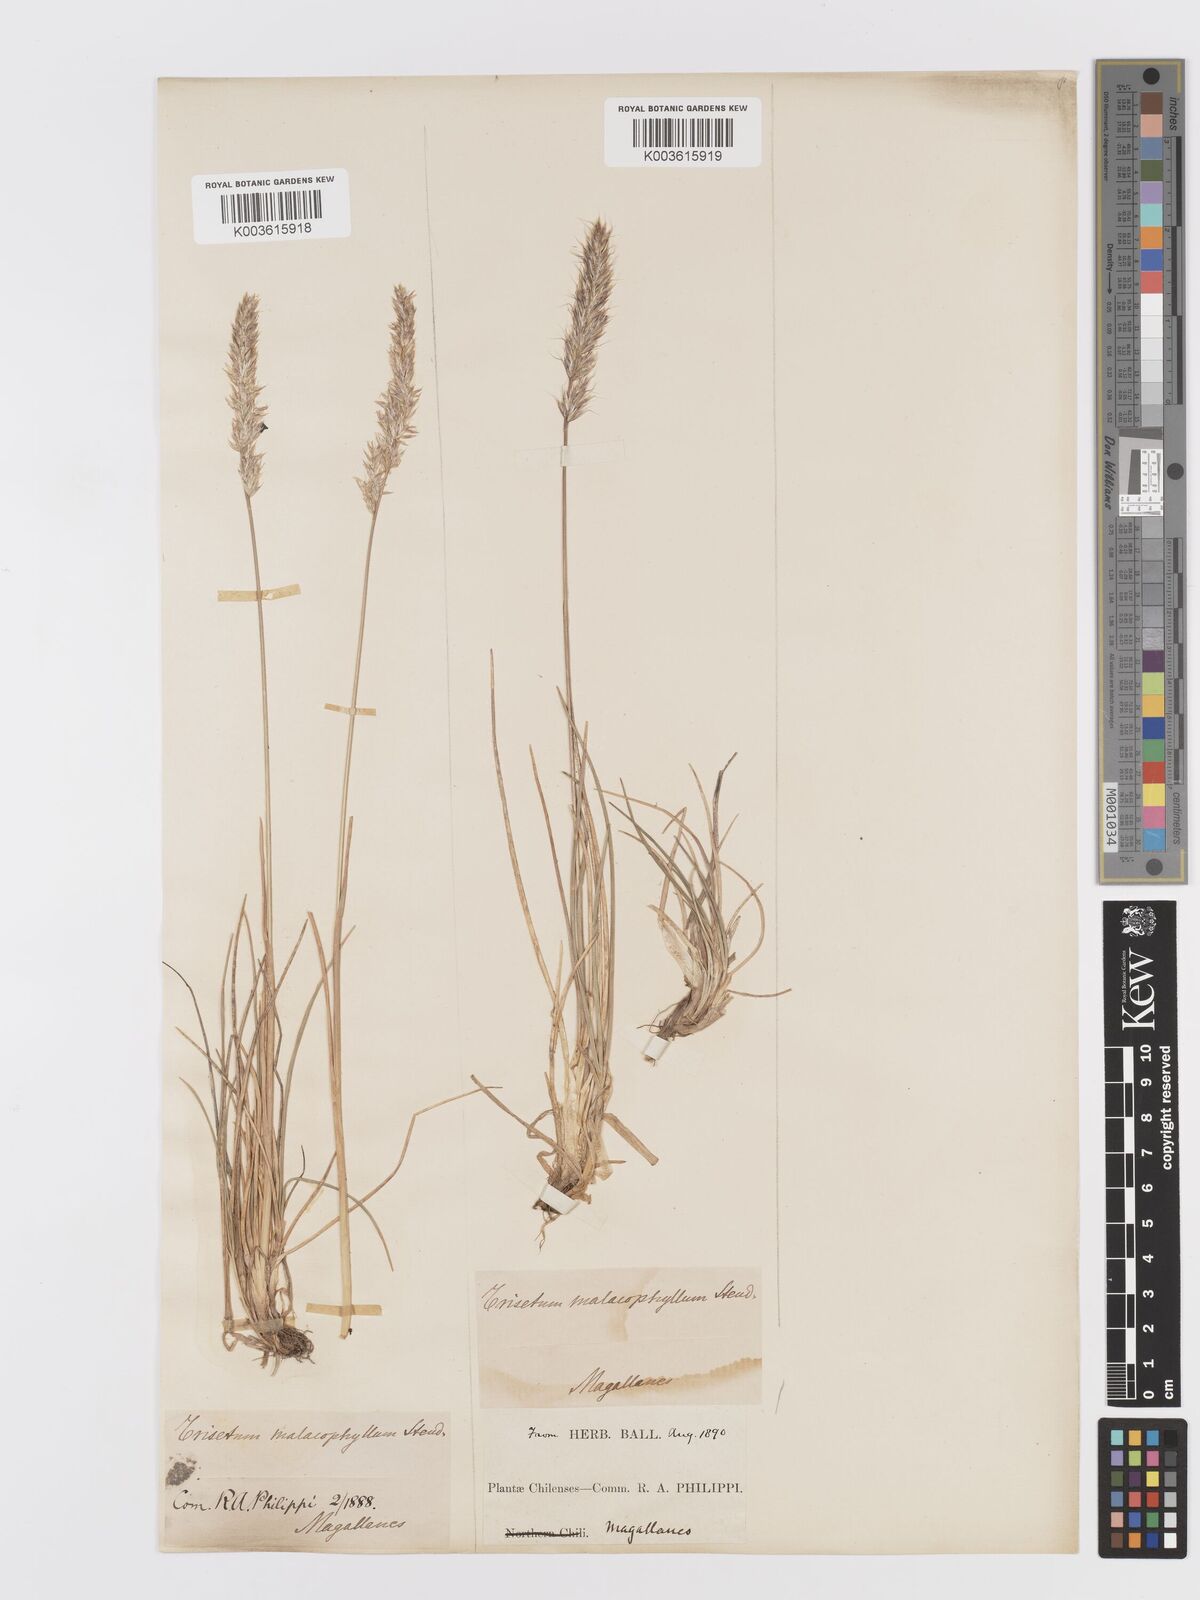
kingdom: Plantae
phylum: Tracheophyta
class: Liliopsida
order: Poales
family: Poaceae
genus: Koeleria
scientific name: Koeleria cumingii
